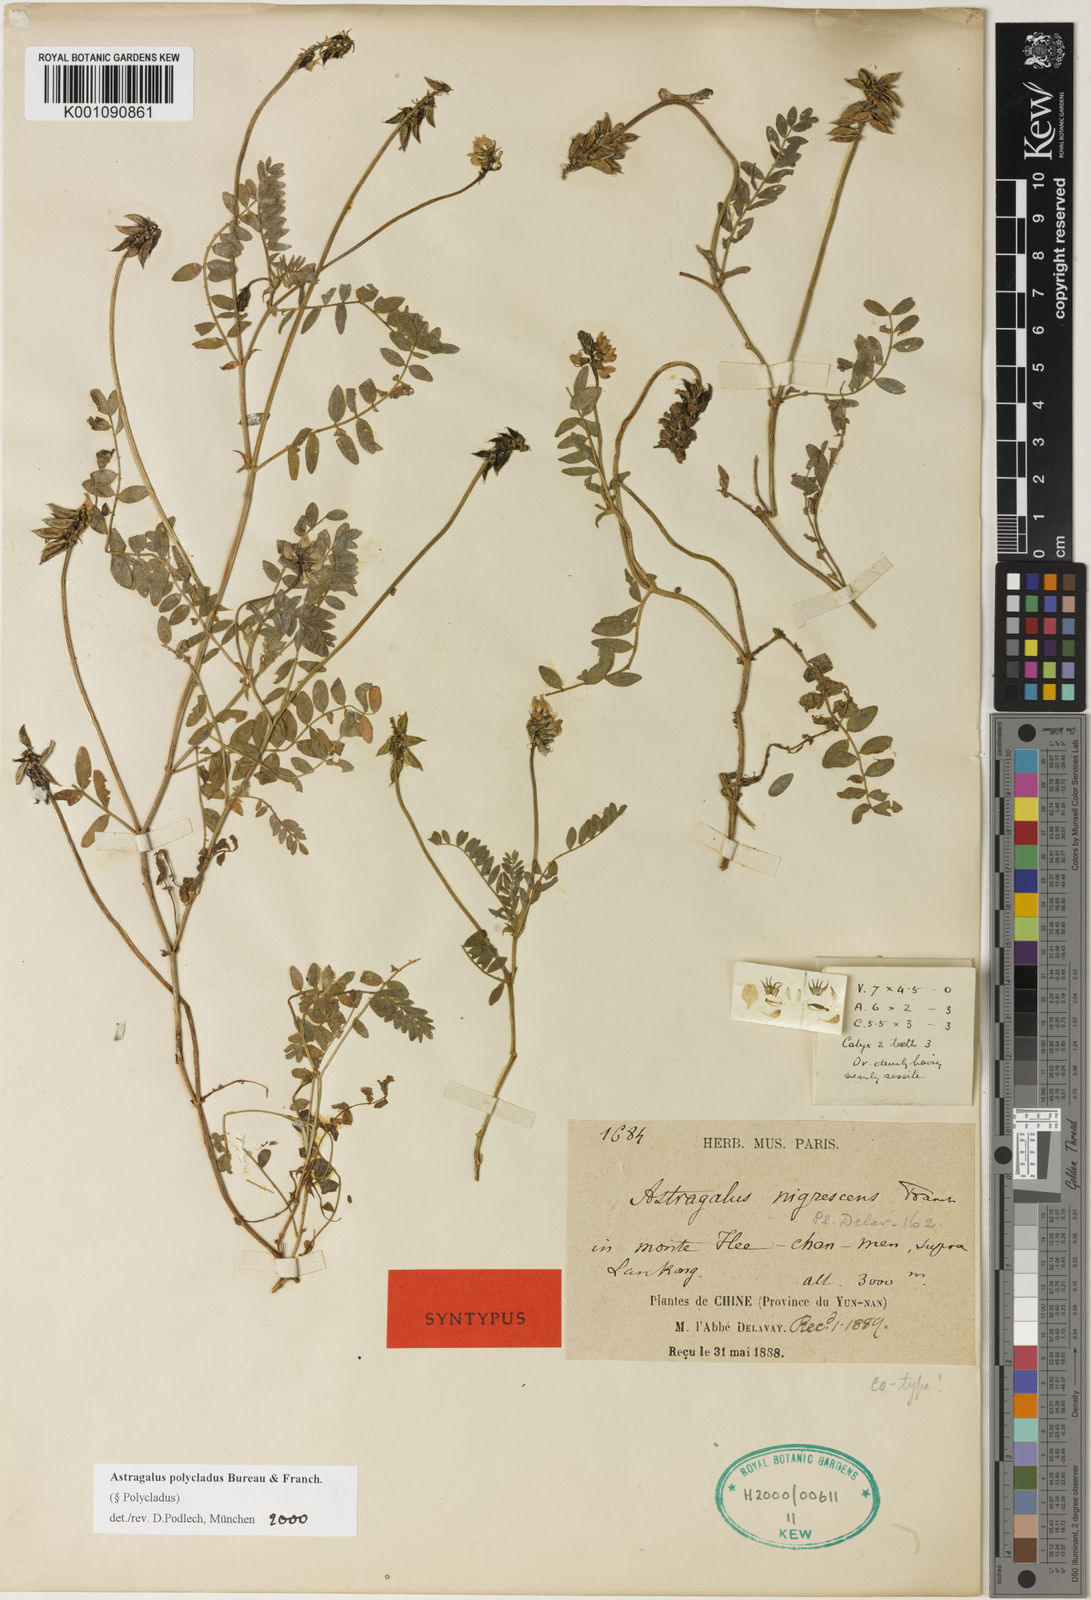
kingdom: Plantae
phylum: Tracheophyta
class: Magnoliopsida
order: Fabales
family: Fabaceae
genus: Astragalus
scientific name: Astragalus
